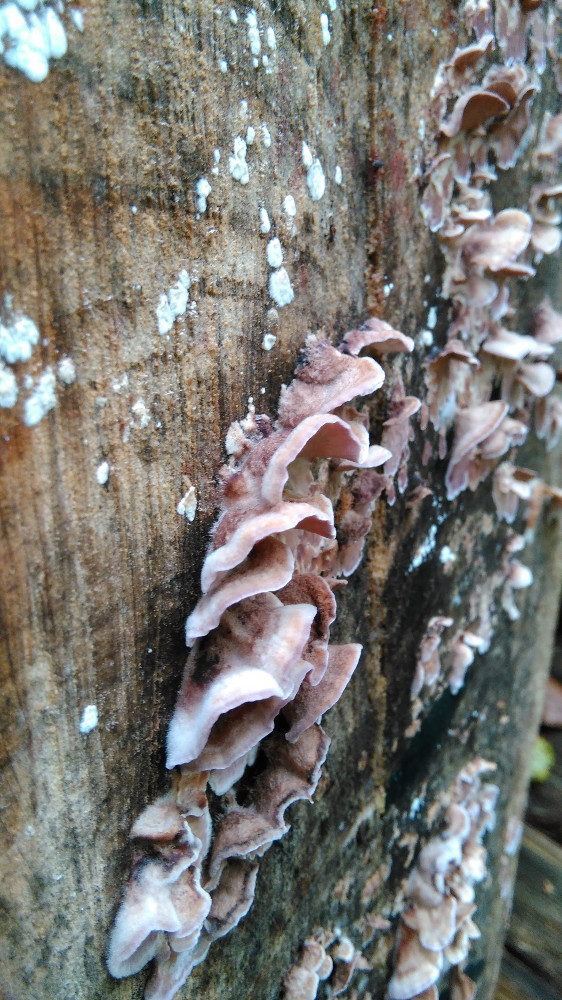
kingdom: Fungi
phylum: Basidiomycota
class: Agaricomycetes
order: Agaricales
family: Cyphellaceae
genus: Chondrostereum
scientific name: Chondrostereum purpureum
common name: purpurlædersvamp
